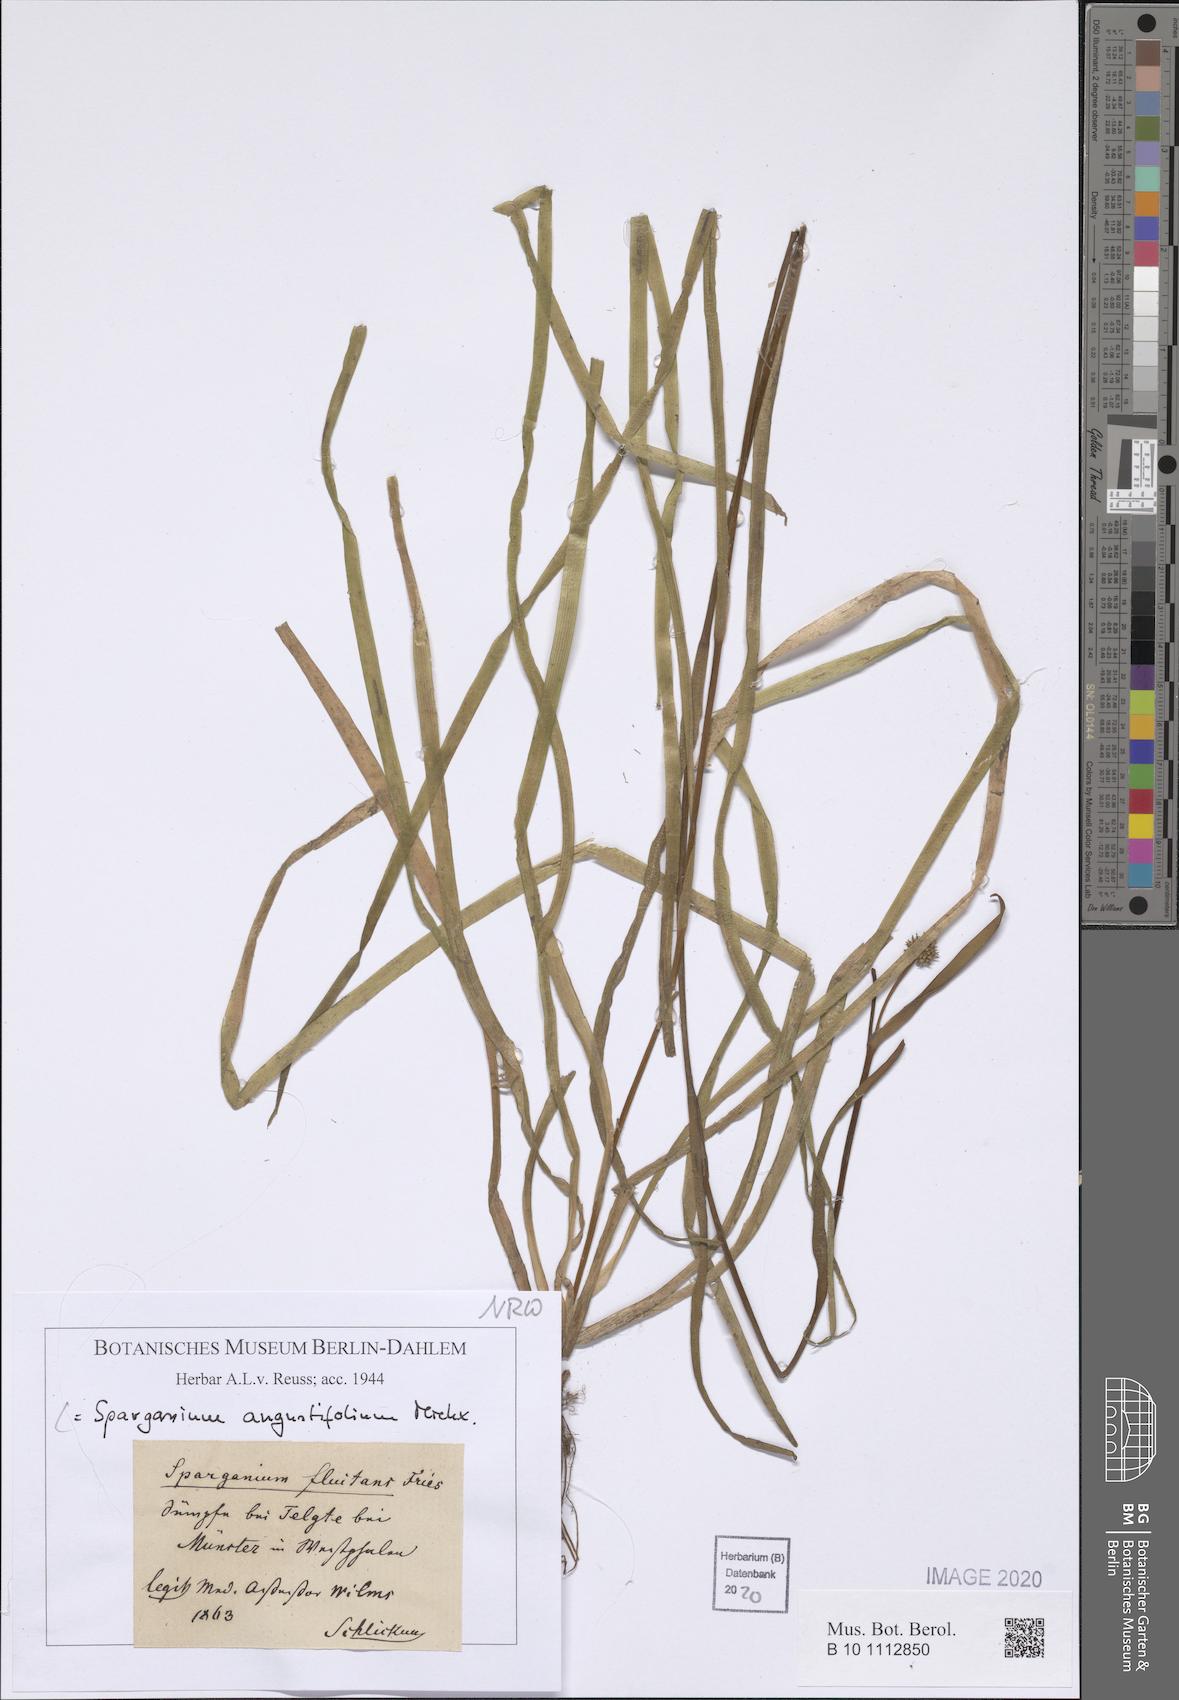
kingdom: Plantae
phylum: Tracheophyta
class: Liliopsida
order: Poales
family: Typhaceae
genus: Sparganium
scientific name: Sparganium angustifolium
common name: Floating bur-reed
